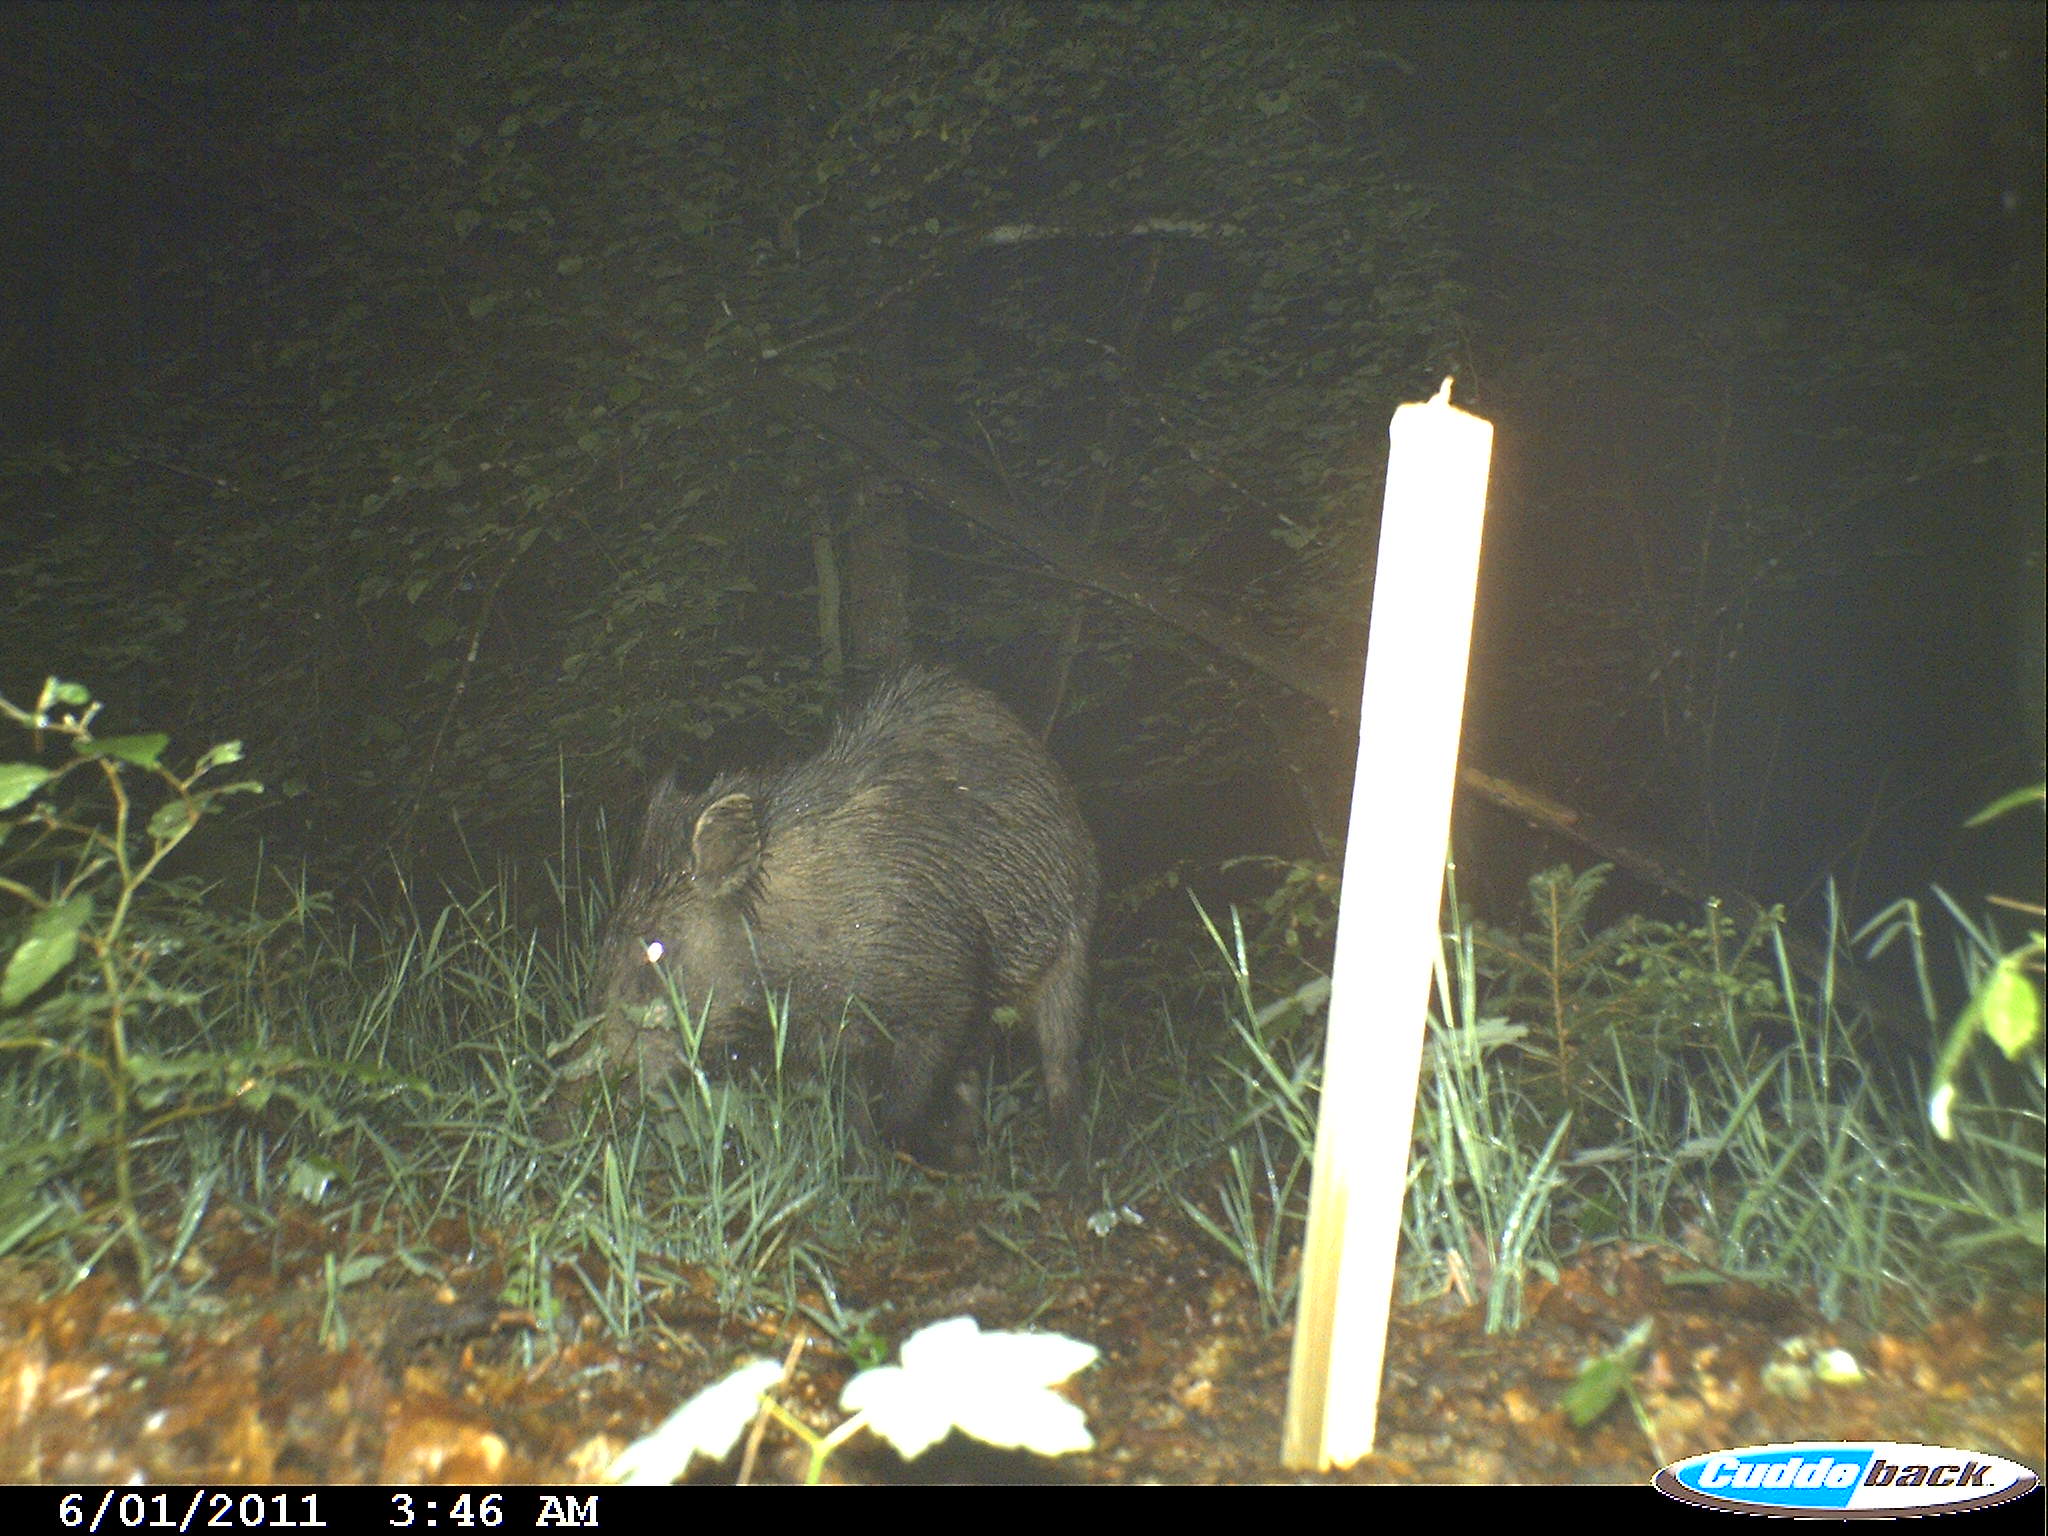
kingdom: Animalia
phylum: Chordata
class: Mammalia
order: Artiodactyla
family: Suidae
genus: Sus
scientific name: Sus scrofa
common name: Wild boar
